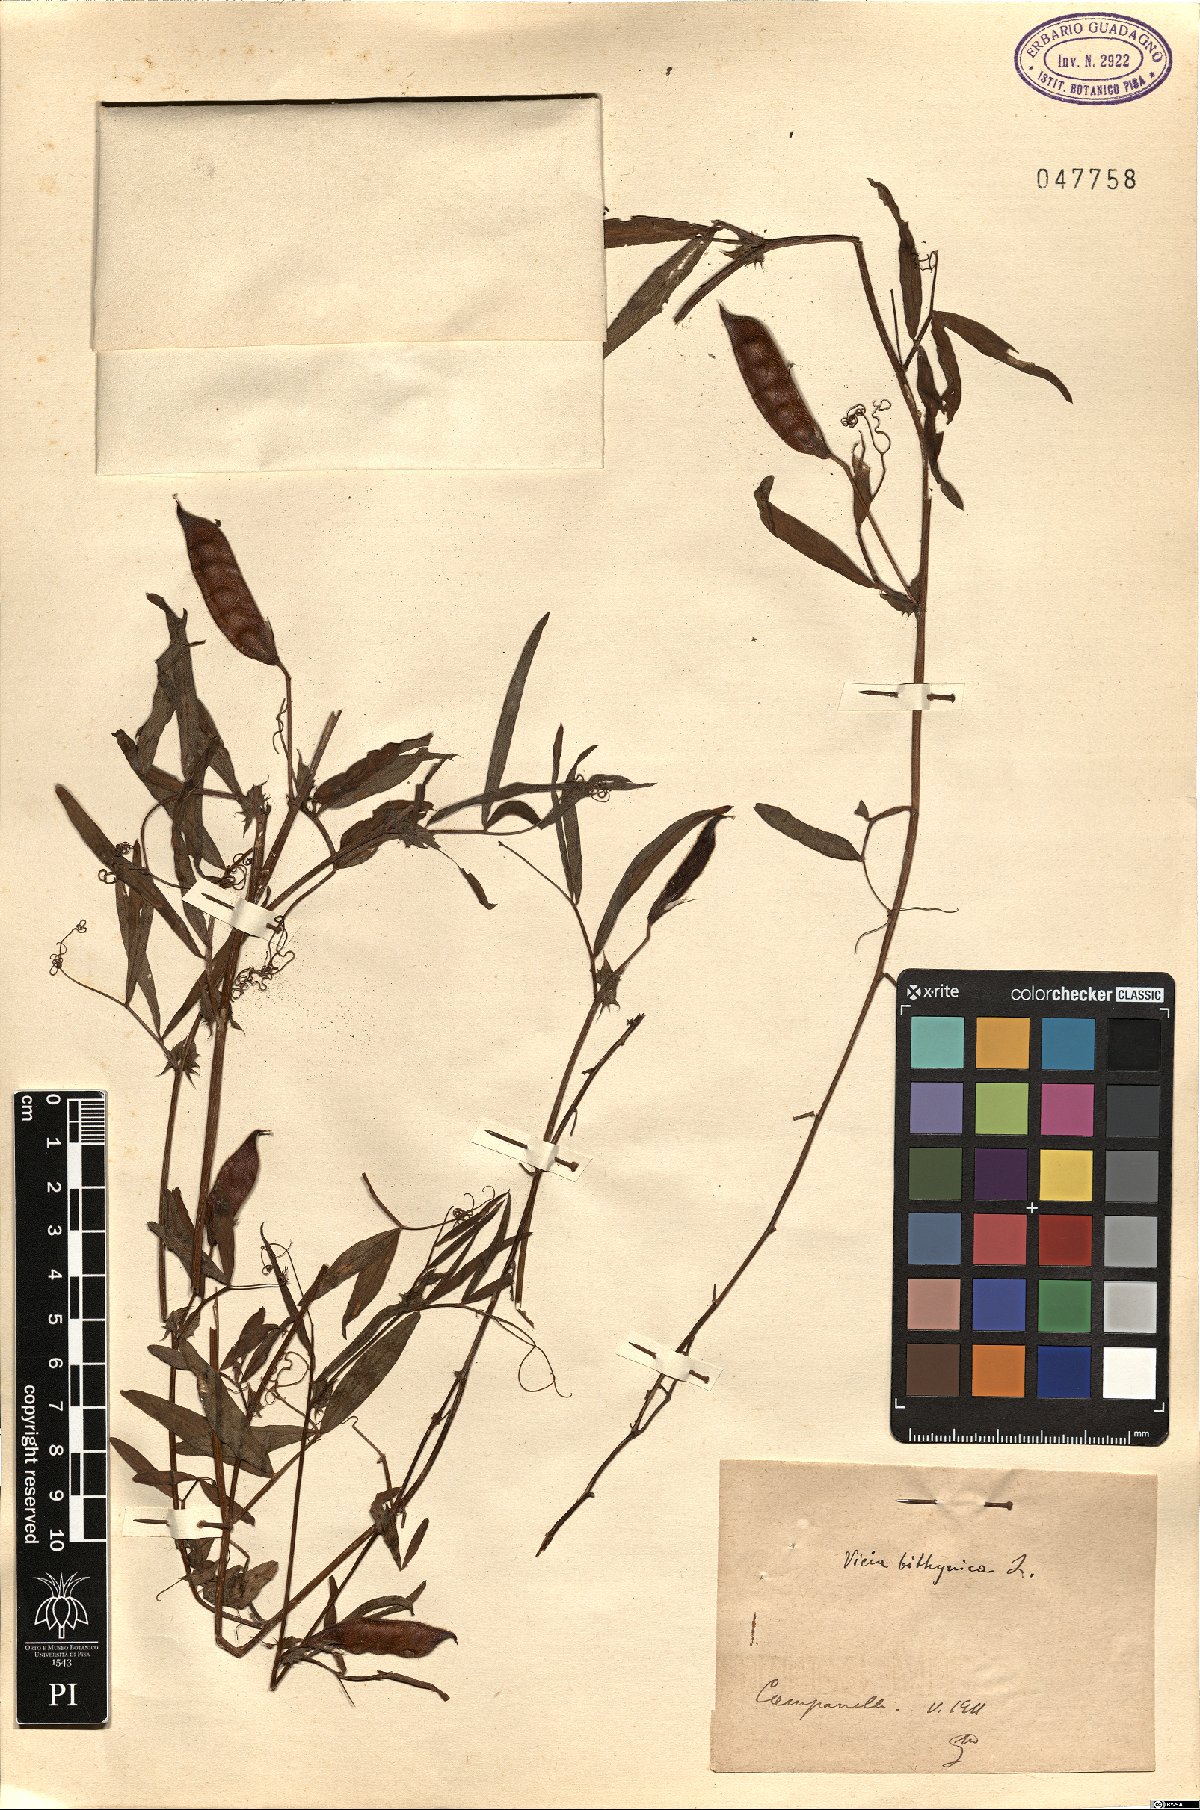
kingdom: Plantae
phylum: Tracheophyta
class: Magnoliopsida
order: Fabales
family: Fabaceae
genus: Vicia
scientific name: Vicia bithynica
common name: Bithynian vetch
